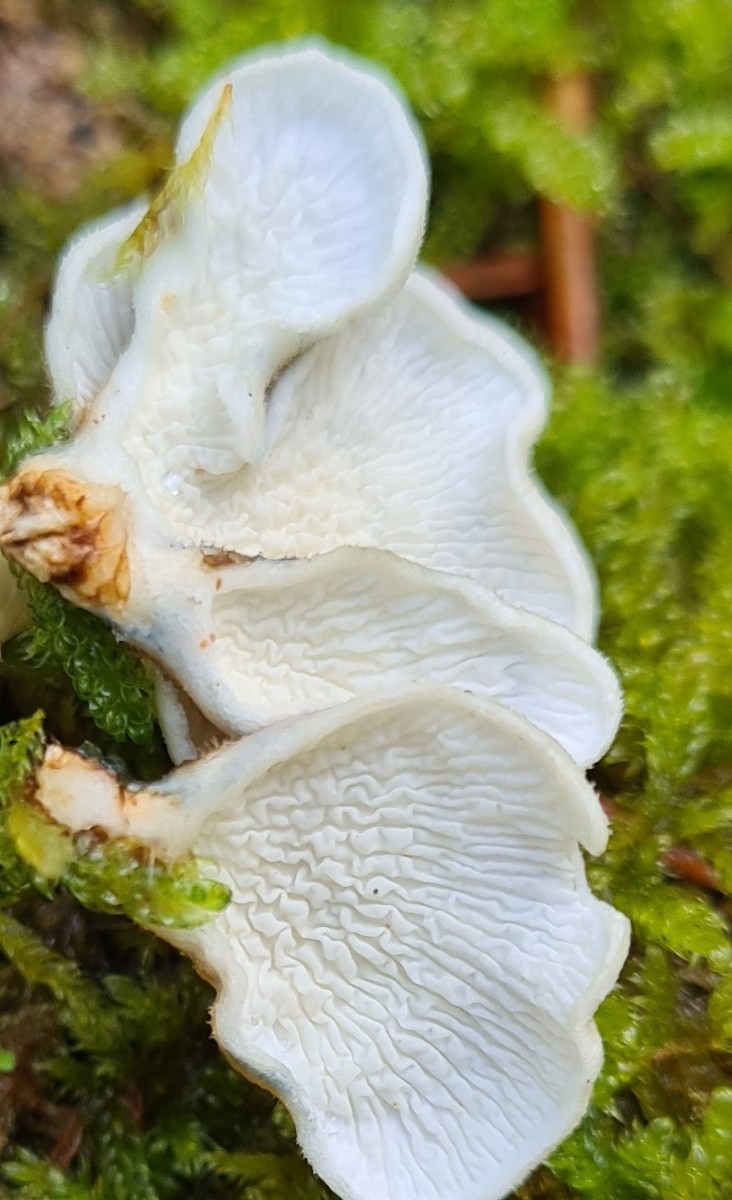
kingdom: Fungi
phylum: Basidiomycota
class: Agaricomycetes
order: Amylocorticiales
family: Amylocorticiaceae
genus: Plicaturopsis
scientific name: Plicaturopsis crispa
